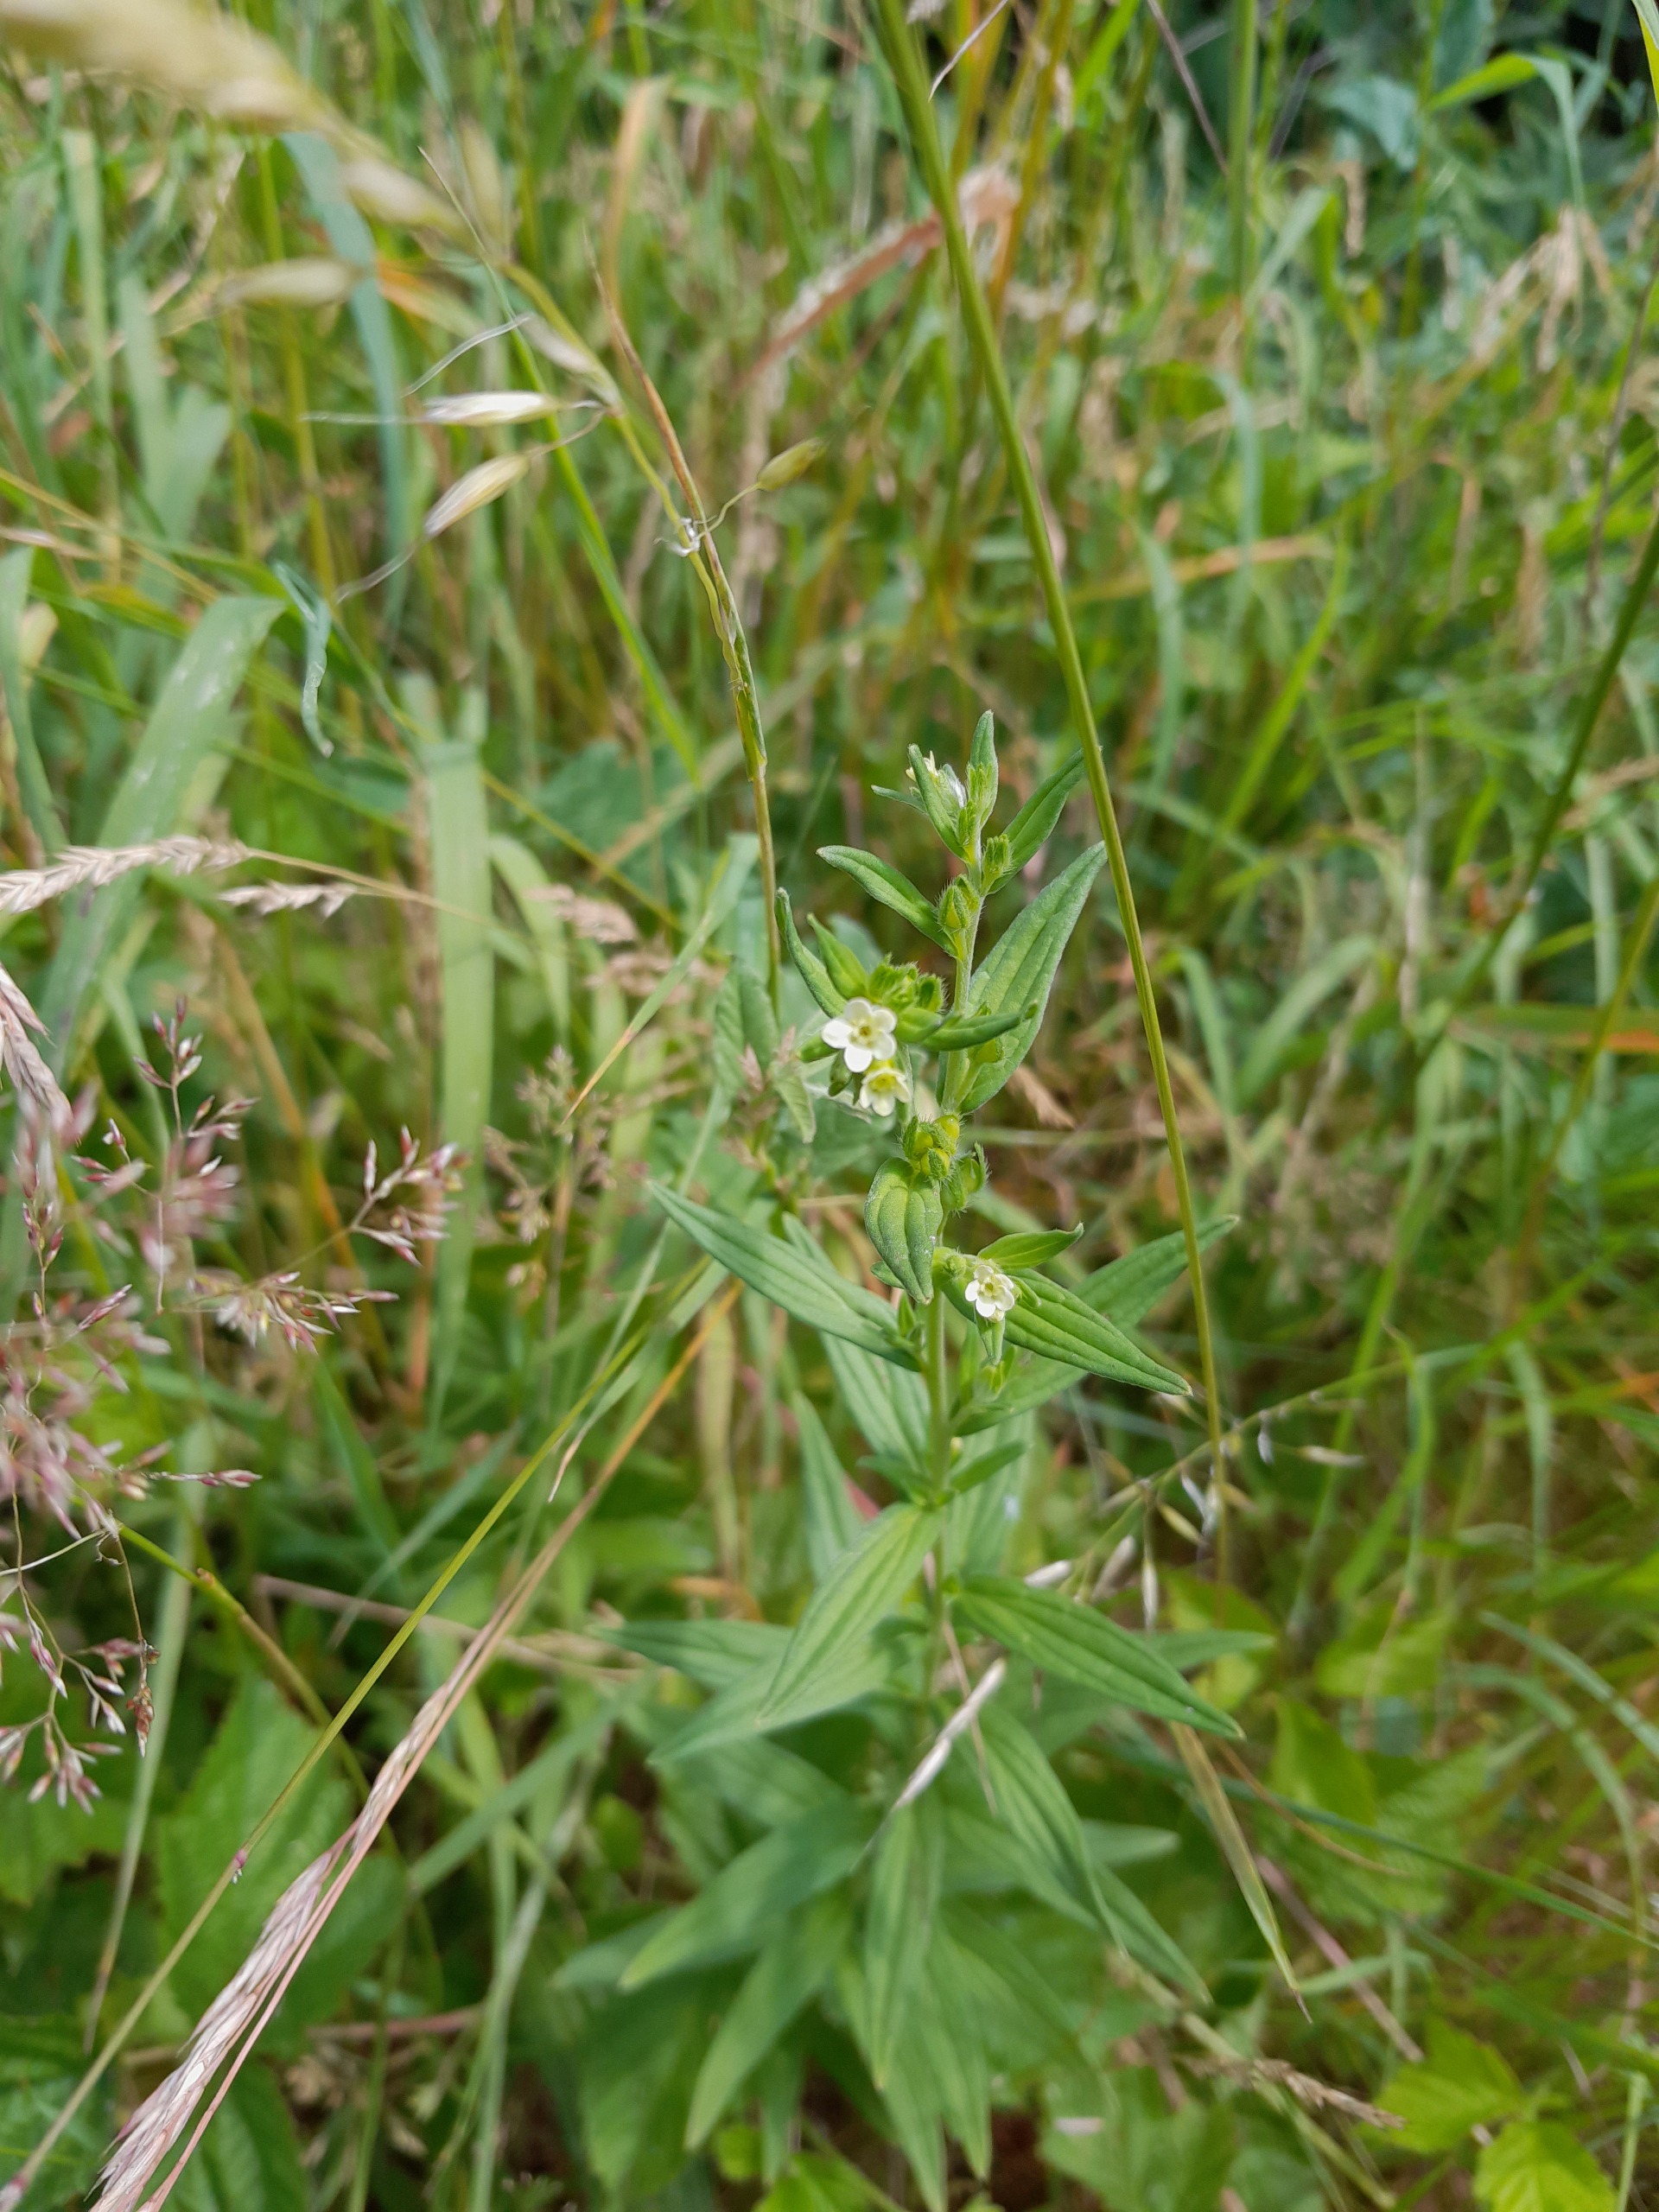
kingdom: Plantae
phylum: Tracheophyta
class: Magnoliopsida
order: Boraginales
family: Boraginaceae
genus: Lithospermum
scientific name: Lithospermum officinale
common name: Læge-stenfrø
